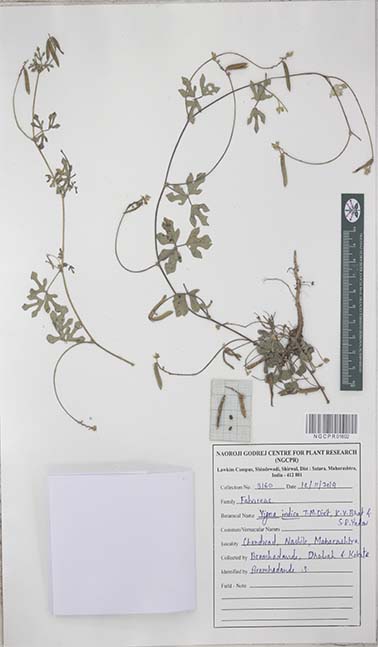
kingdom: Plantae
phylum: Tracheophyta
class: Magnoliopsida
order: Fabales
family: Fabaceae
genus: Vigna
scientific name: Vigna indica
